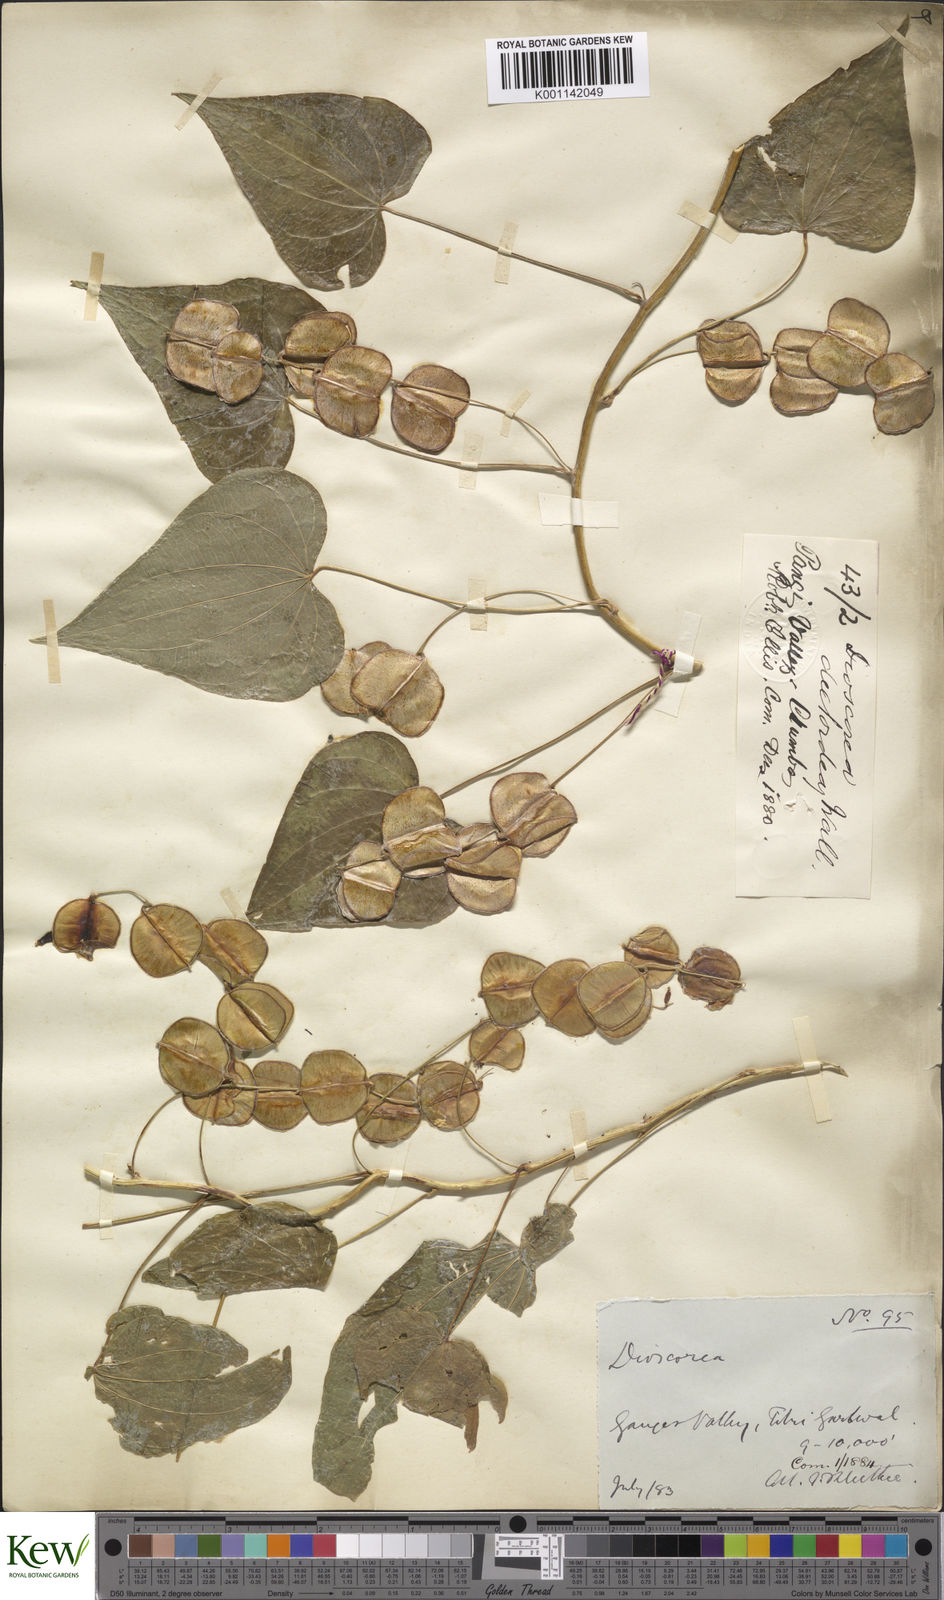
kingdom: Plantae
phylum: Tracheophyta
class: Liliopsida
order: Dioscoreales
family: Dioscoreaceae
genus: Dioscorea
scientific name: Dioscorea deltoidea
